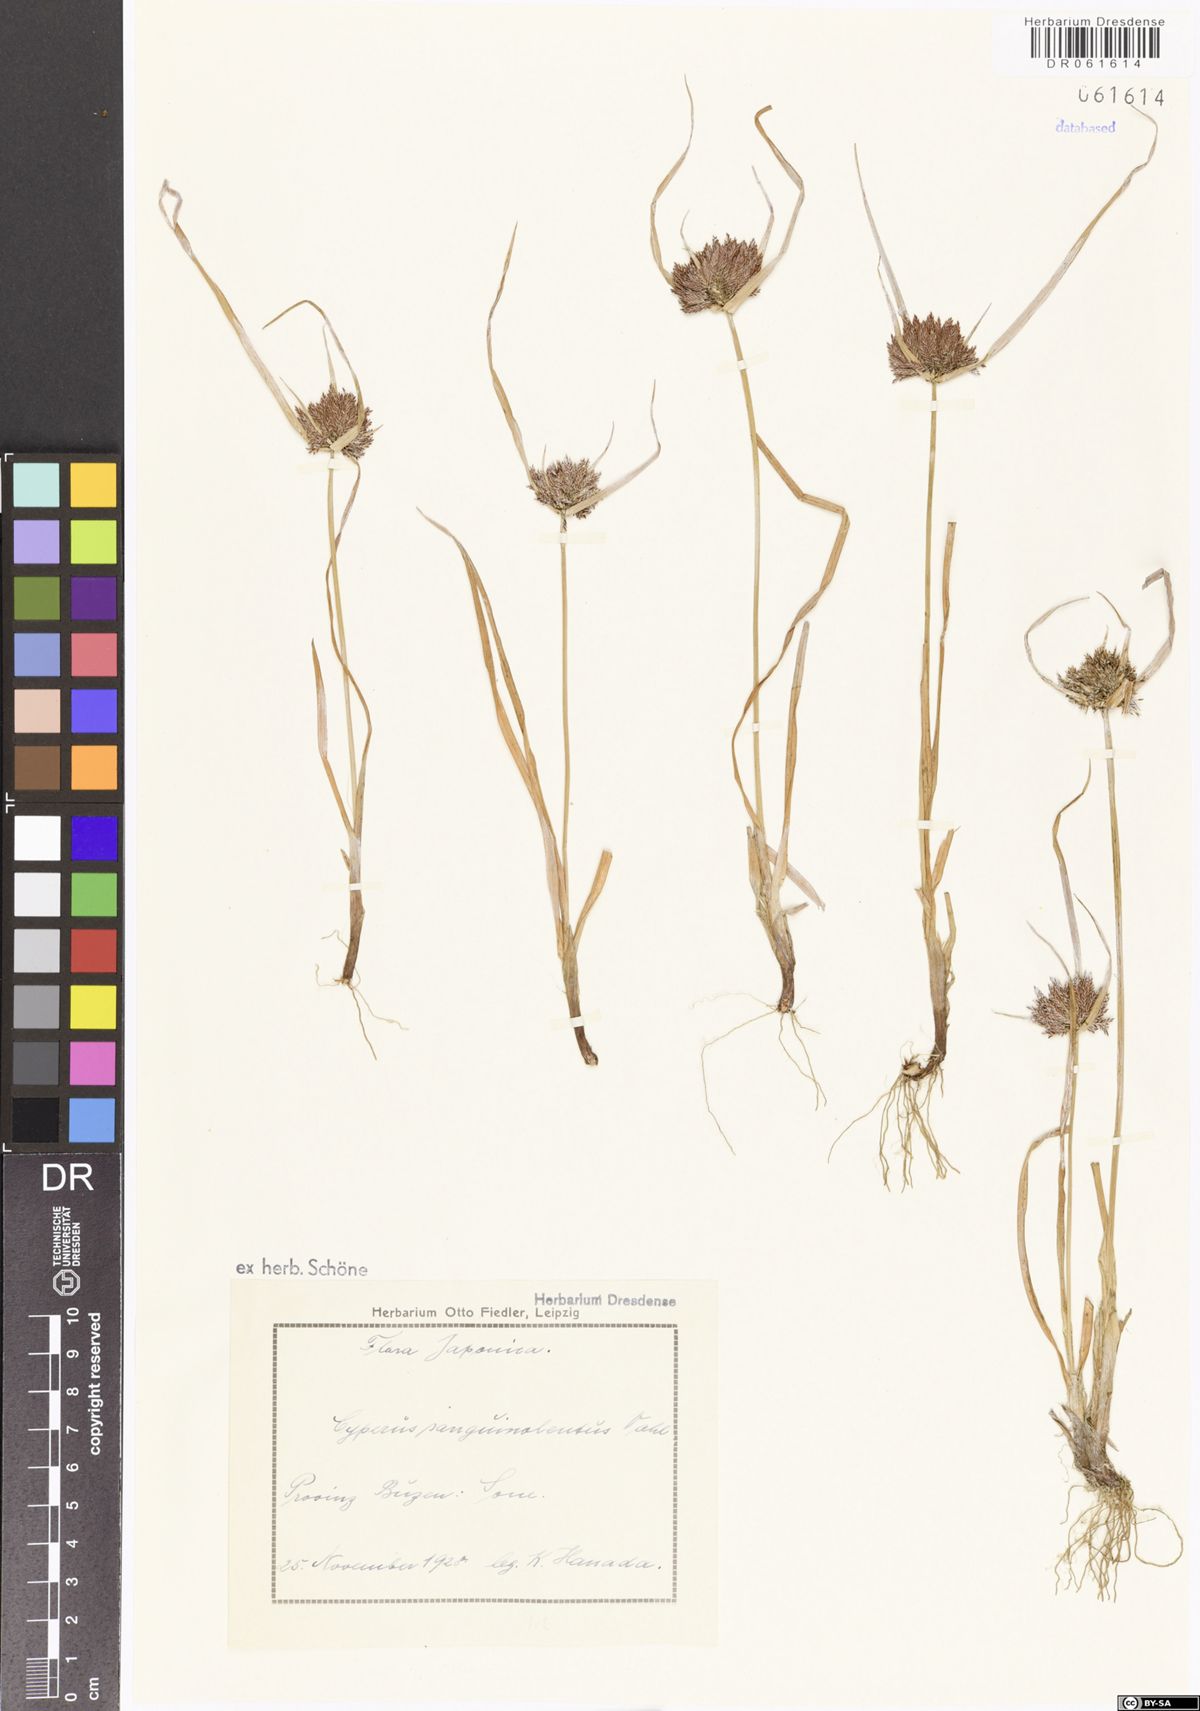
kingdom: Plantae
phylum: Tracheophyta
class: Liliopsida
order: Poales
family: Cyperaceae
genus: Cyperus
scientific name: Cyperus sanguinolentus
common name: Purpleglume flatsedge
